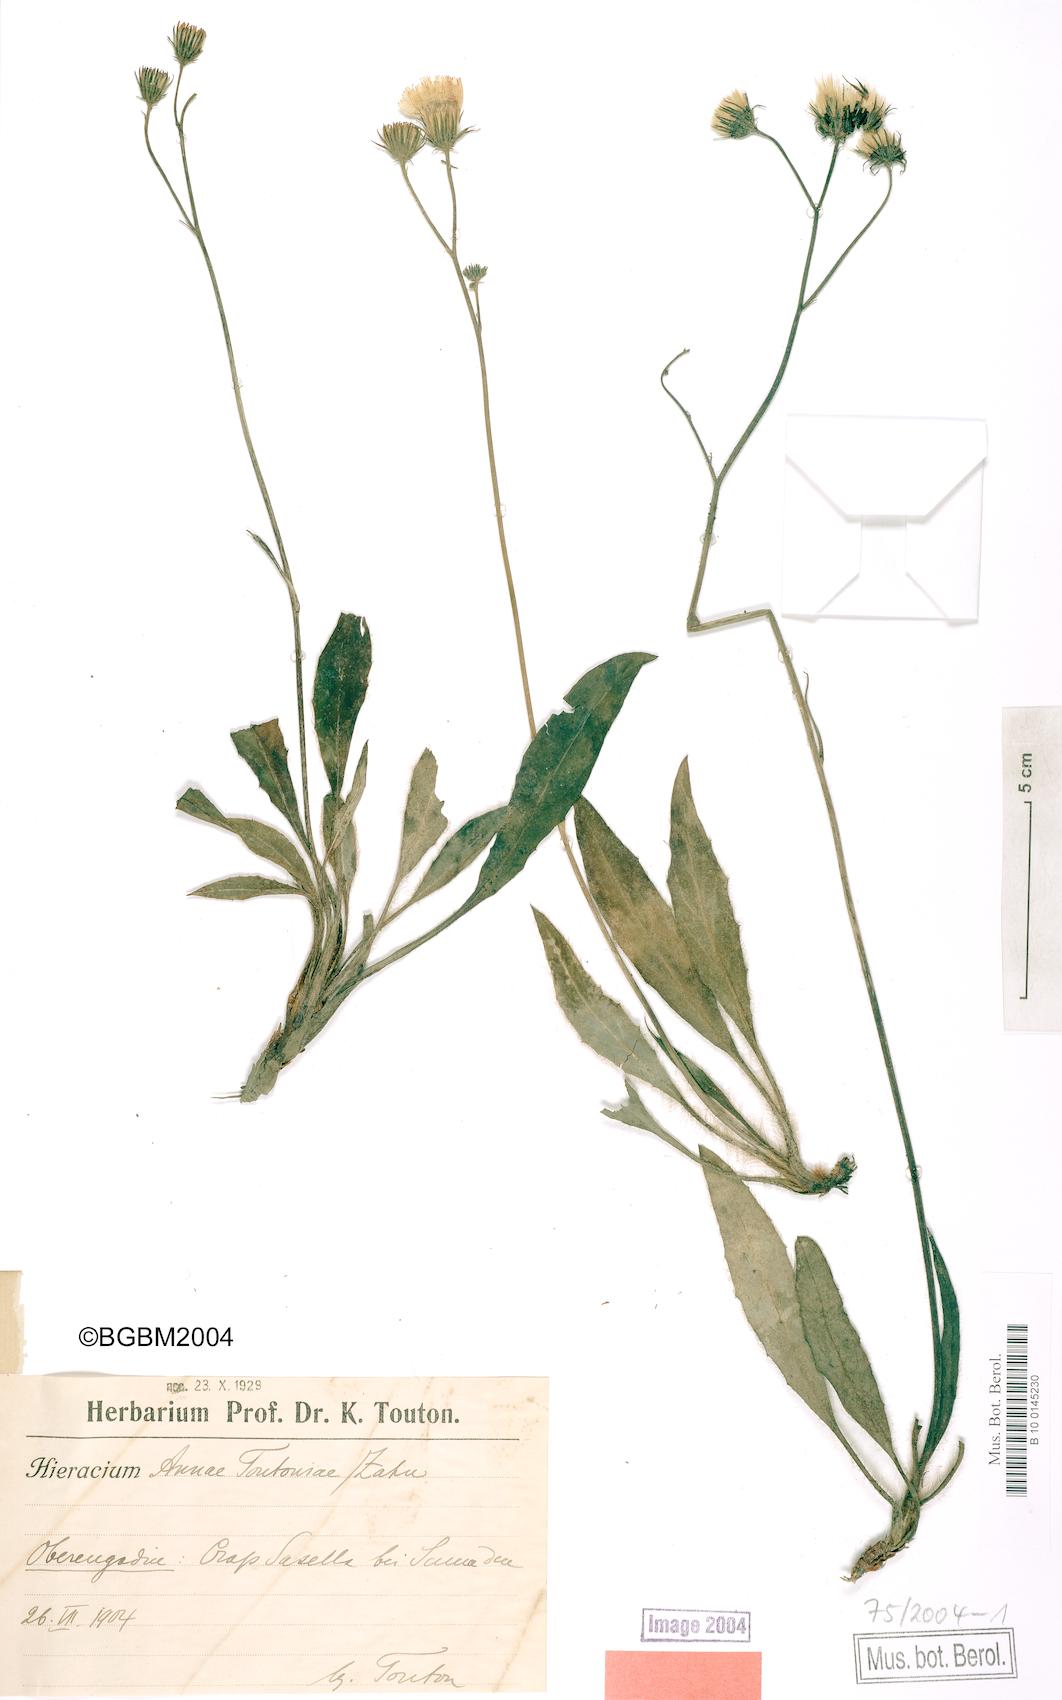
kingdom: Plantae
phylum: Tracheophyta
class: Magnoliopsida
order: Asterales
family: Asteraceae
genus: Hieracium
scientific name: Hieracium annae-toutoniae
